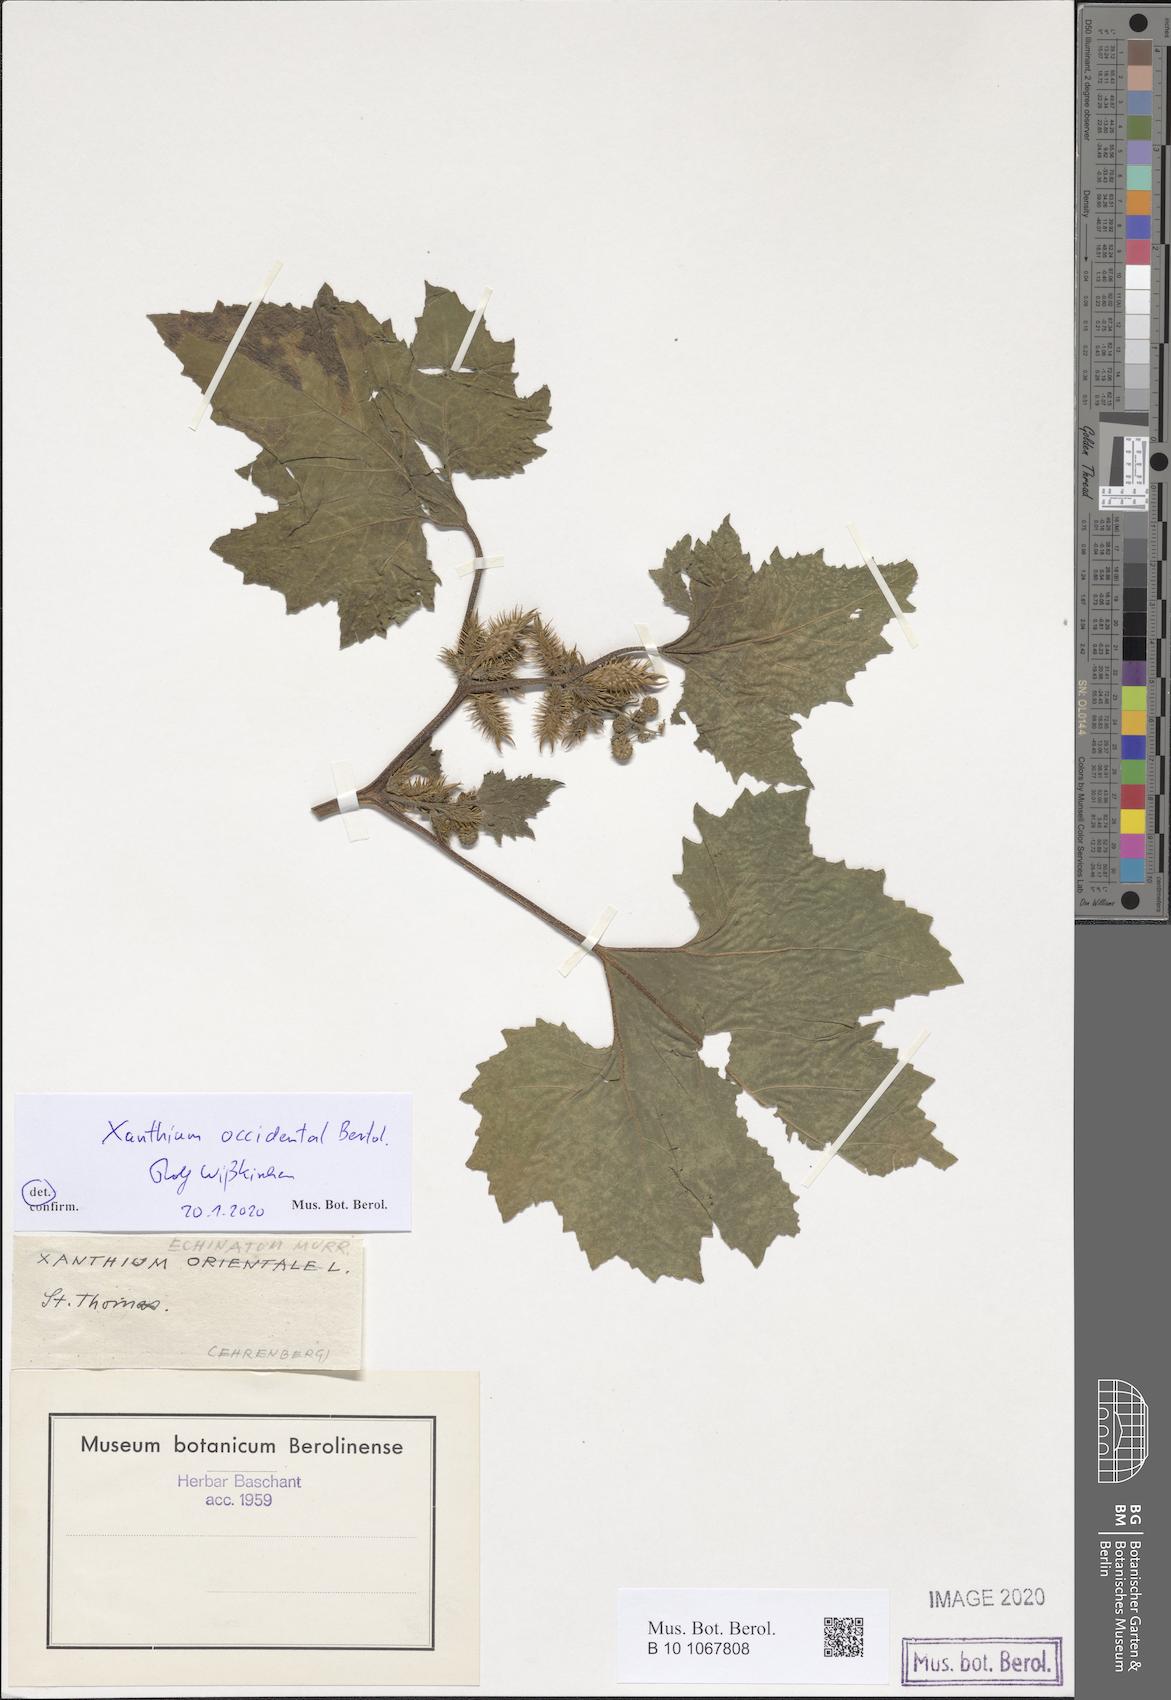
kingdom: Plantae
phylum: Tracheophyta
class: Magnoliopsida
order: Asterales
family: Asteraceae
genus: Xanthium
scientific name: Xanthium occidentale
